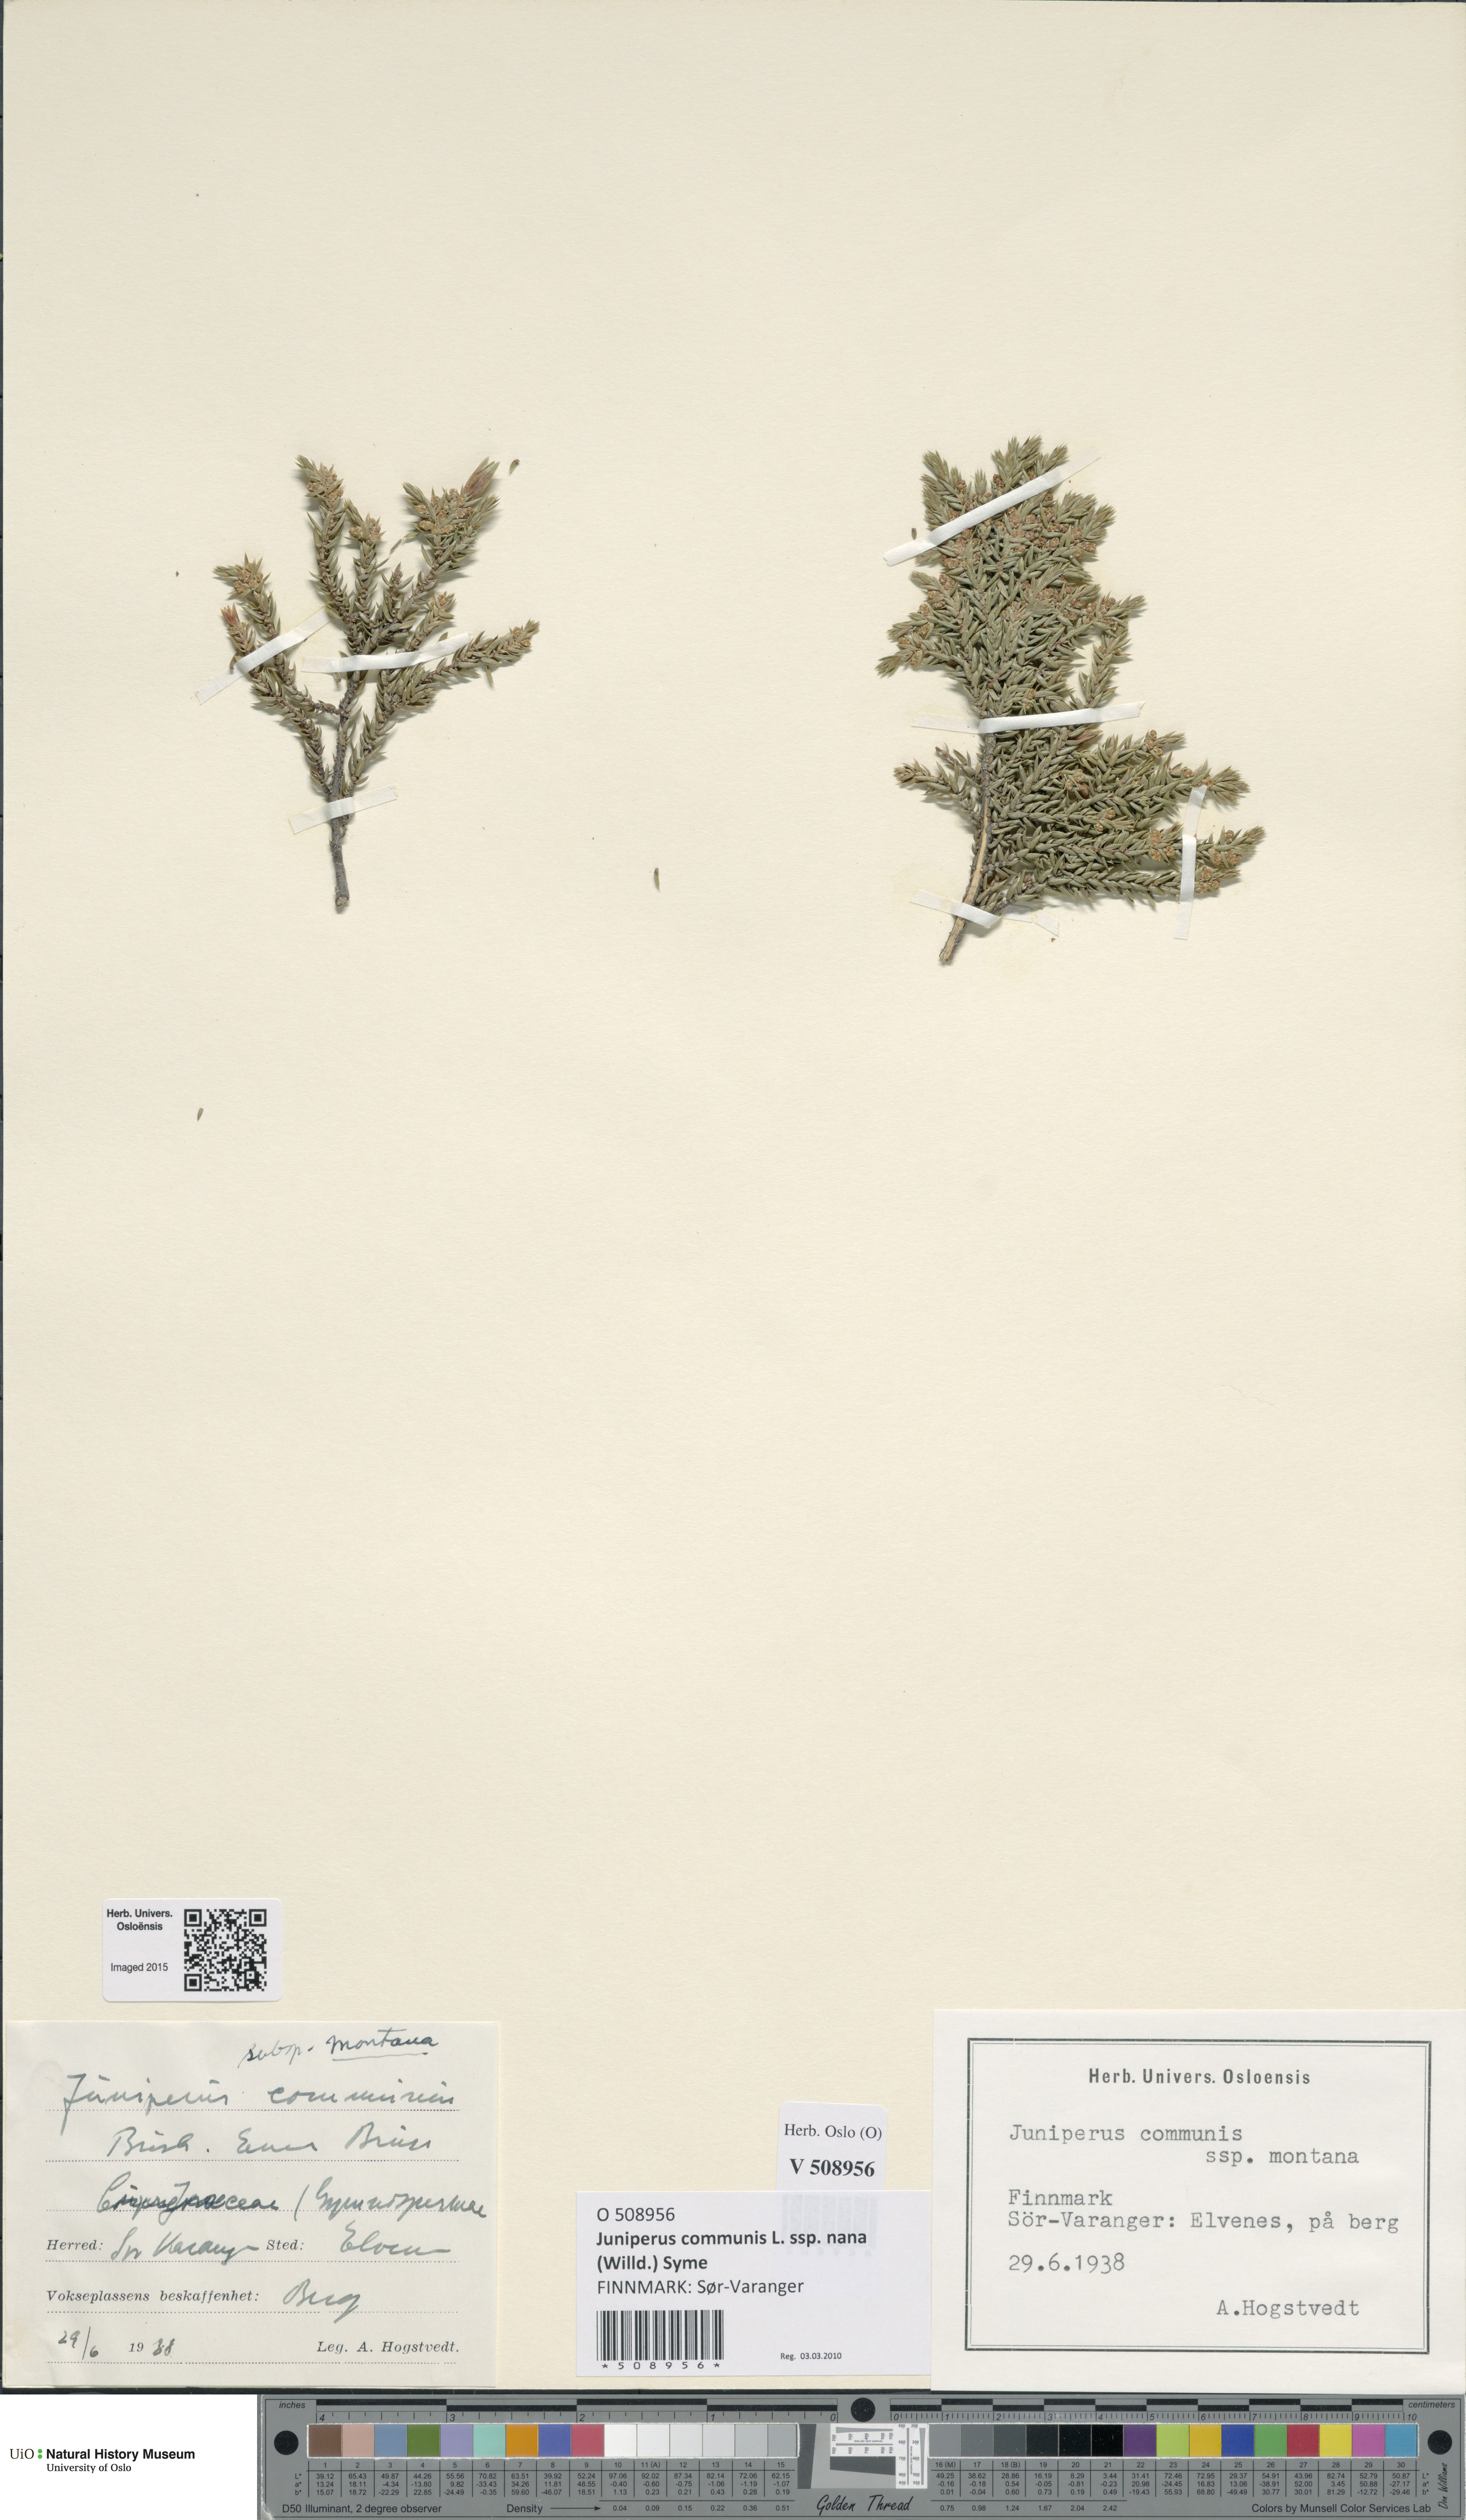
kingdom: Plantae
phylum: Tracheophyta
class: Pinopsida
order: Pinales
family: Cupressaceae
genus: Juniperus
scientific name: Juniperus communis
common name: Common juniper
